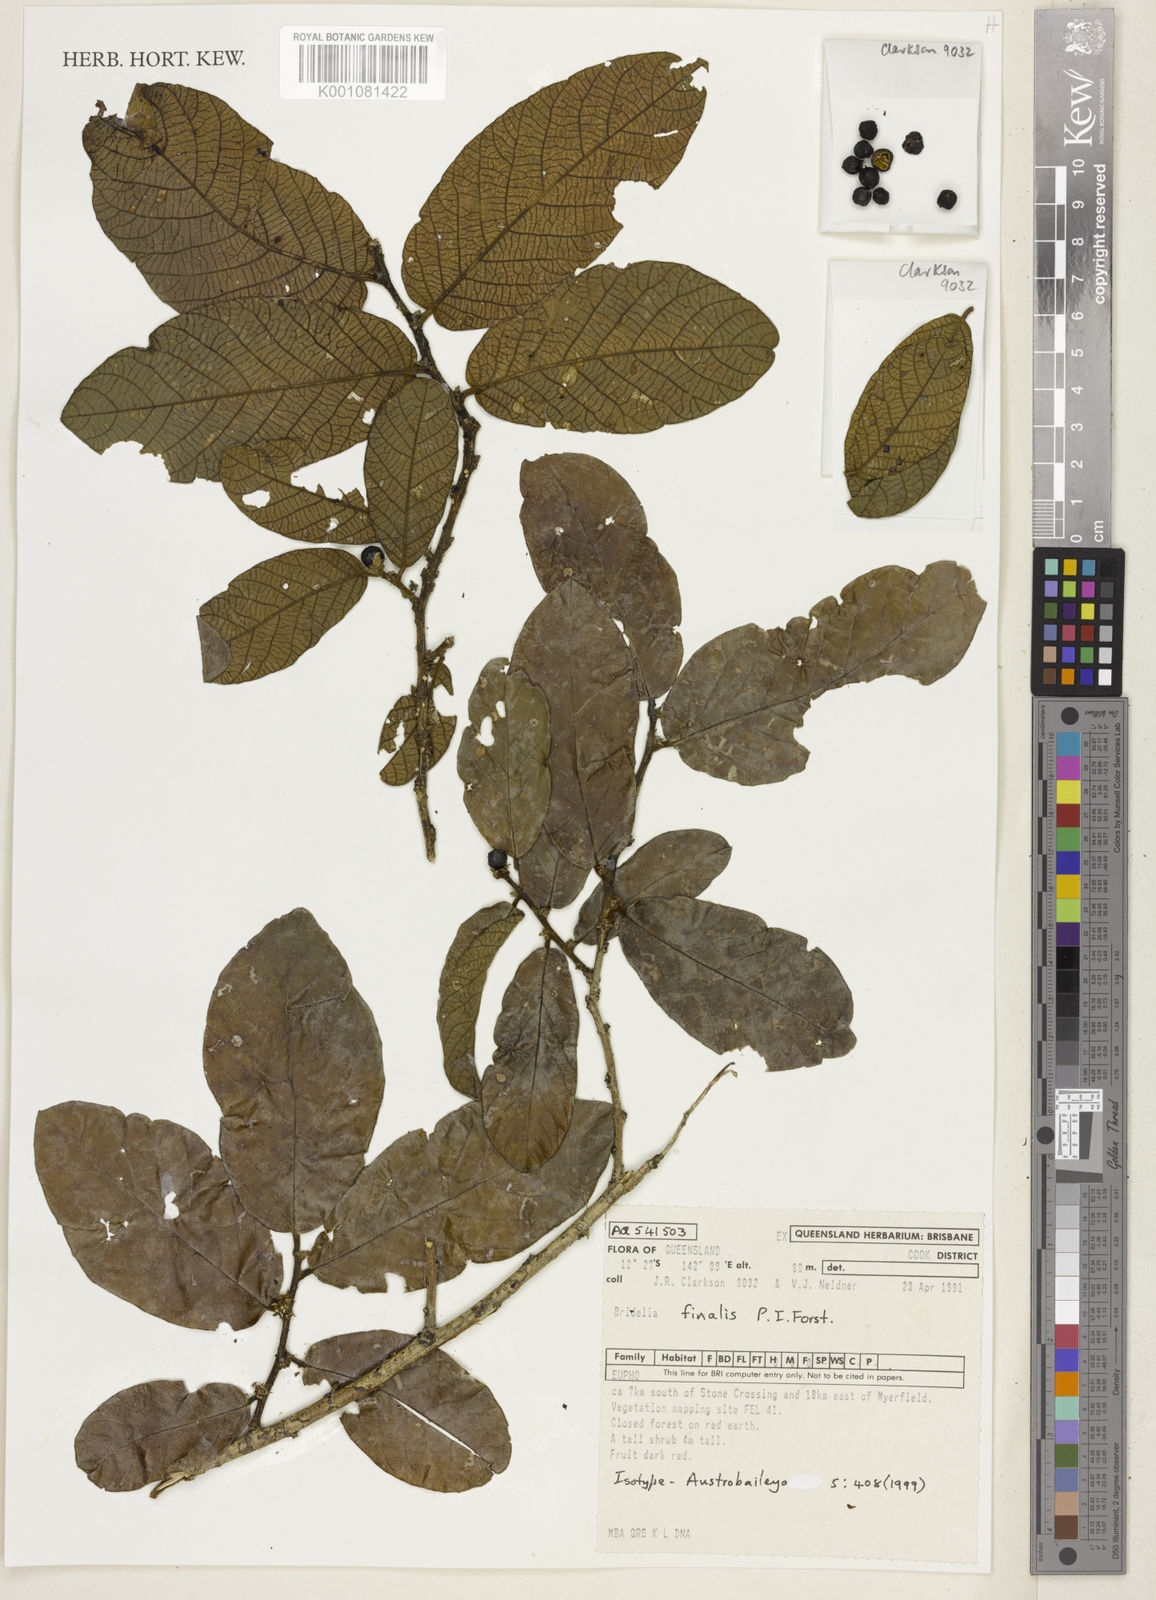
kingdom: Plantae
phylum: Tracheophyta
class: Magnoliopsida
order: Malpighiales
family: Phyllanthaceae
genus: Bridelia
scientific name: Bridelia finalis
